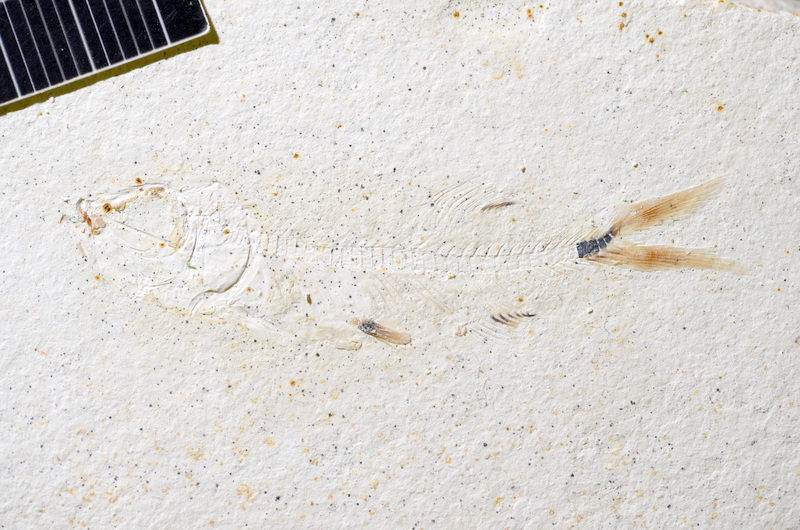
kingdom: Animalia
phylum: Chordata
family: Ascalaboidae
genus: Ebertichthys
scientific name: Ebertichthys ettlingensis
